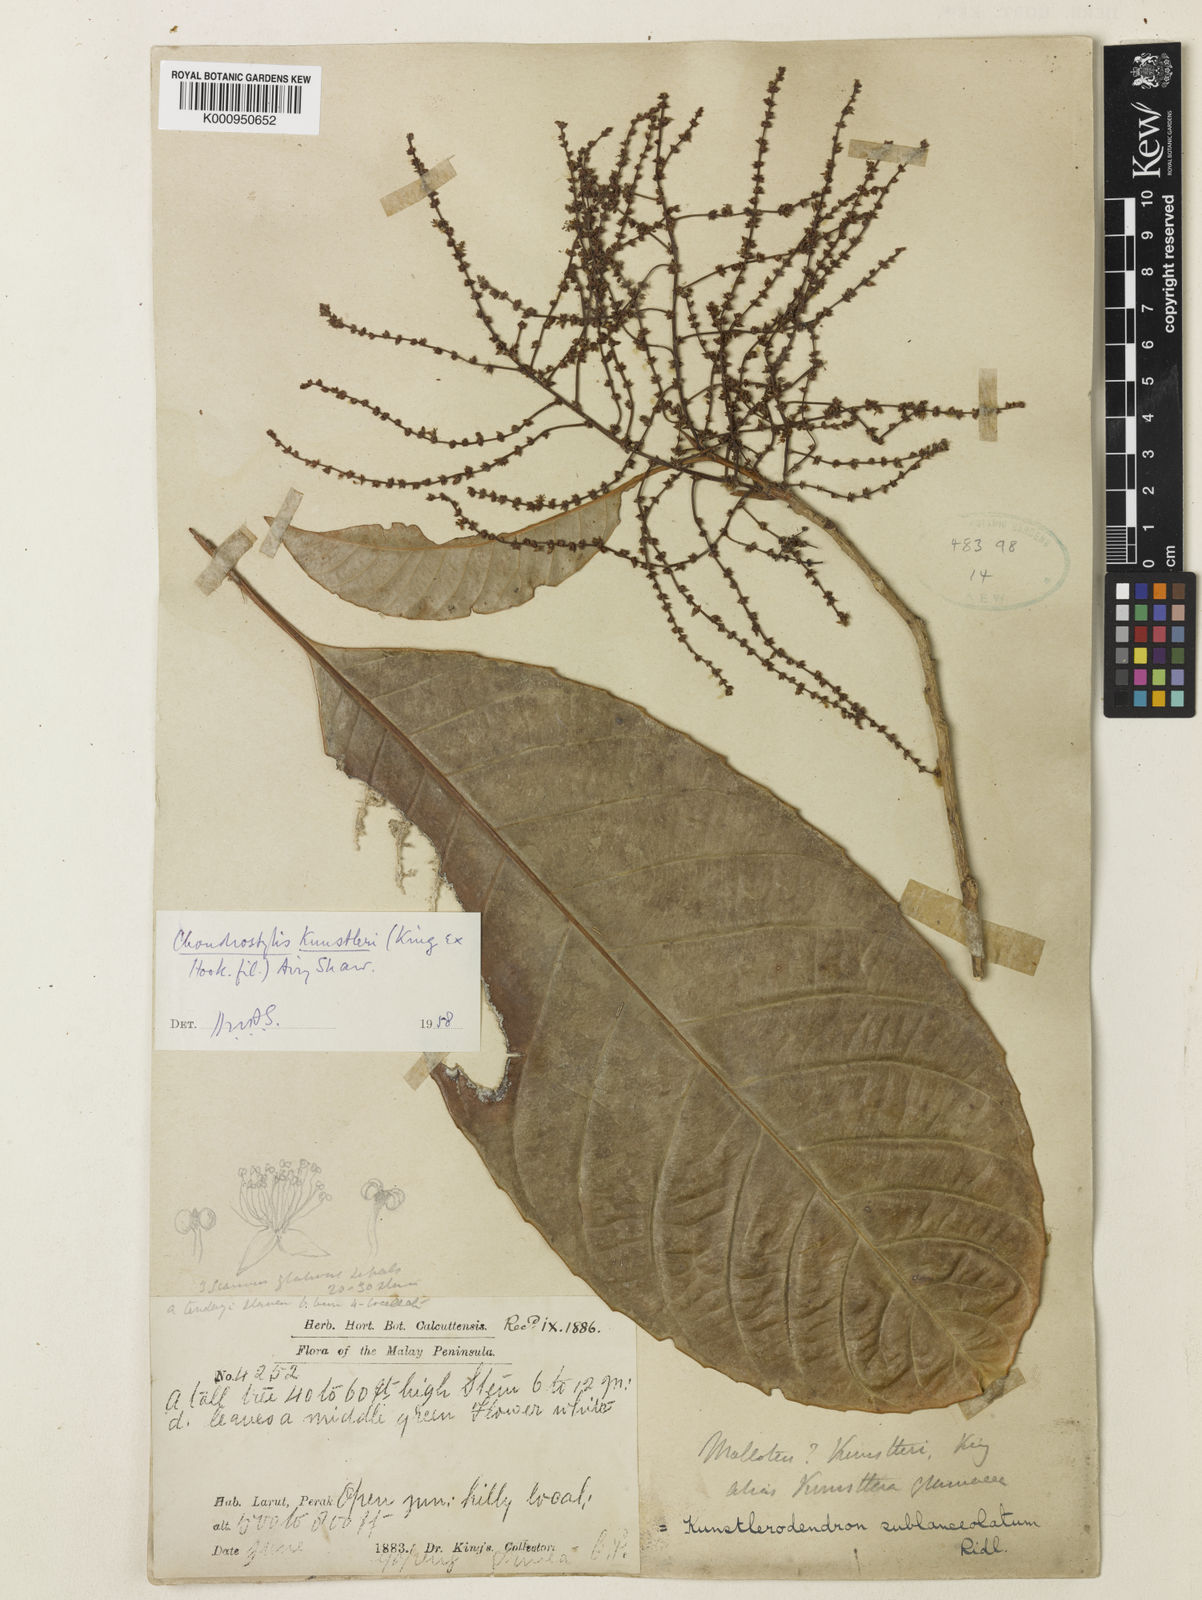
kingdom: Plantae
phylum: Tracheophyta
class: Magnoliopsida
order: Malpighiales
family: Euphorbiaceae
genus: Chondrostylis
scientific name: Chondrostylis kunstleri
